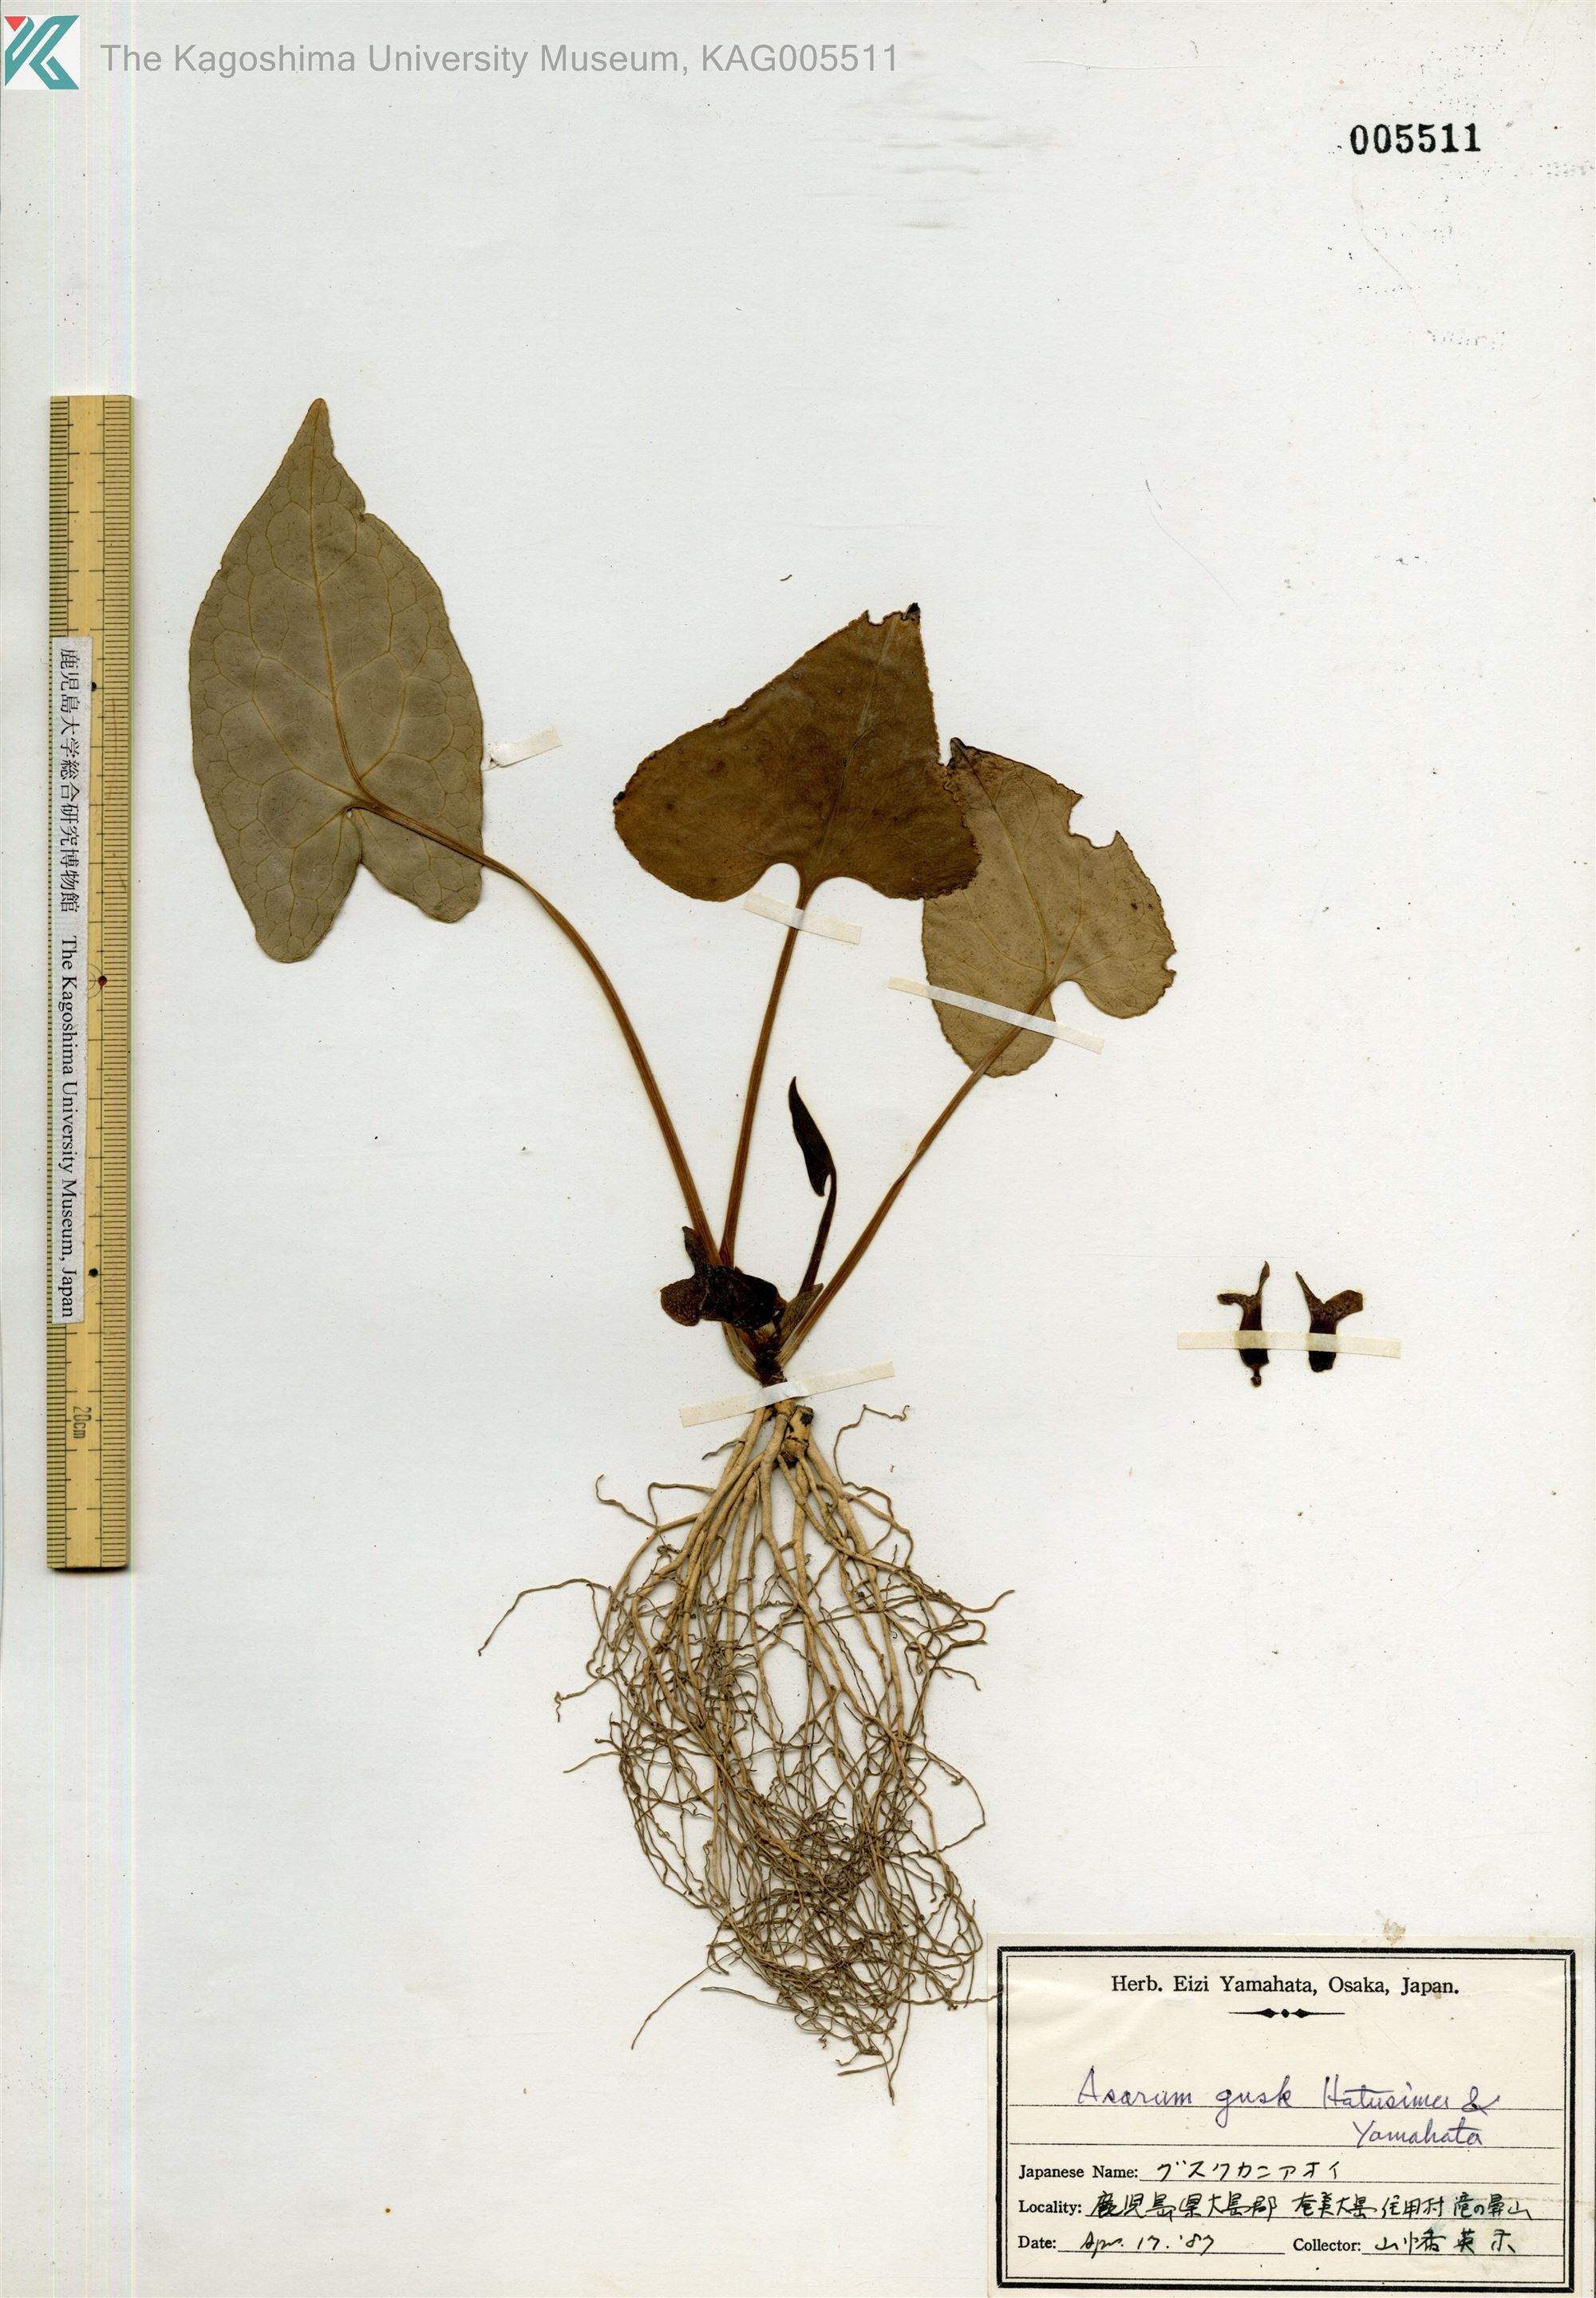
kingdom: Plantae
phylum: Tracheophyta
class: Magnoliopsida
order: Piperales
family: Aristolochiaceae
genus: Asarum
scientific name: Asarum gusk
